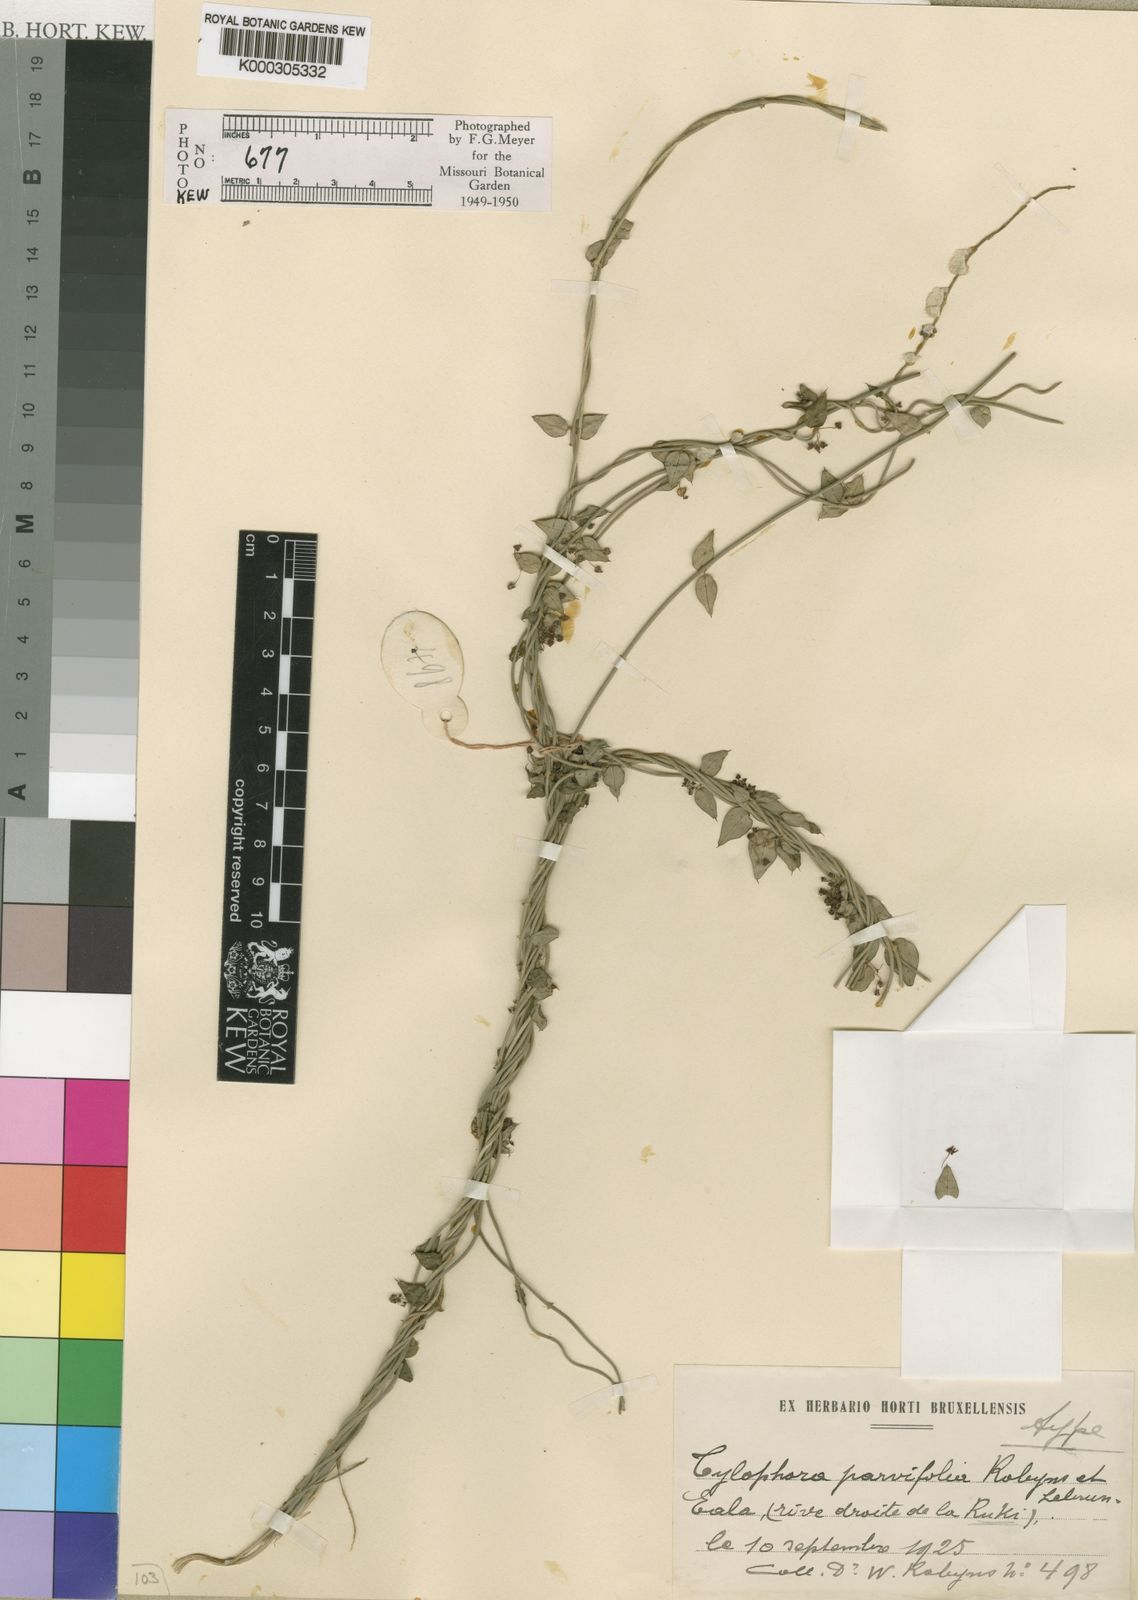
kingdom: Plantae
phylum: Tracheophyta
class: Magnoliopsida
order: Gentianales
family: Apocynaceae
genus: Vincetoxicum
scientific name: Vincetoxicum parvum
